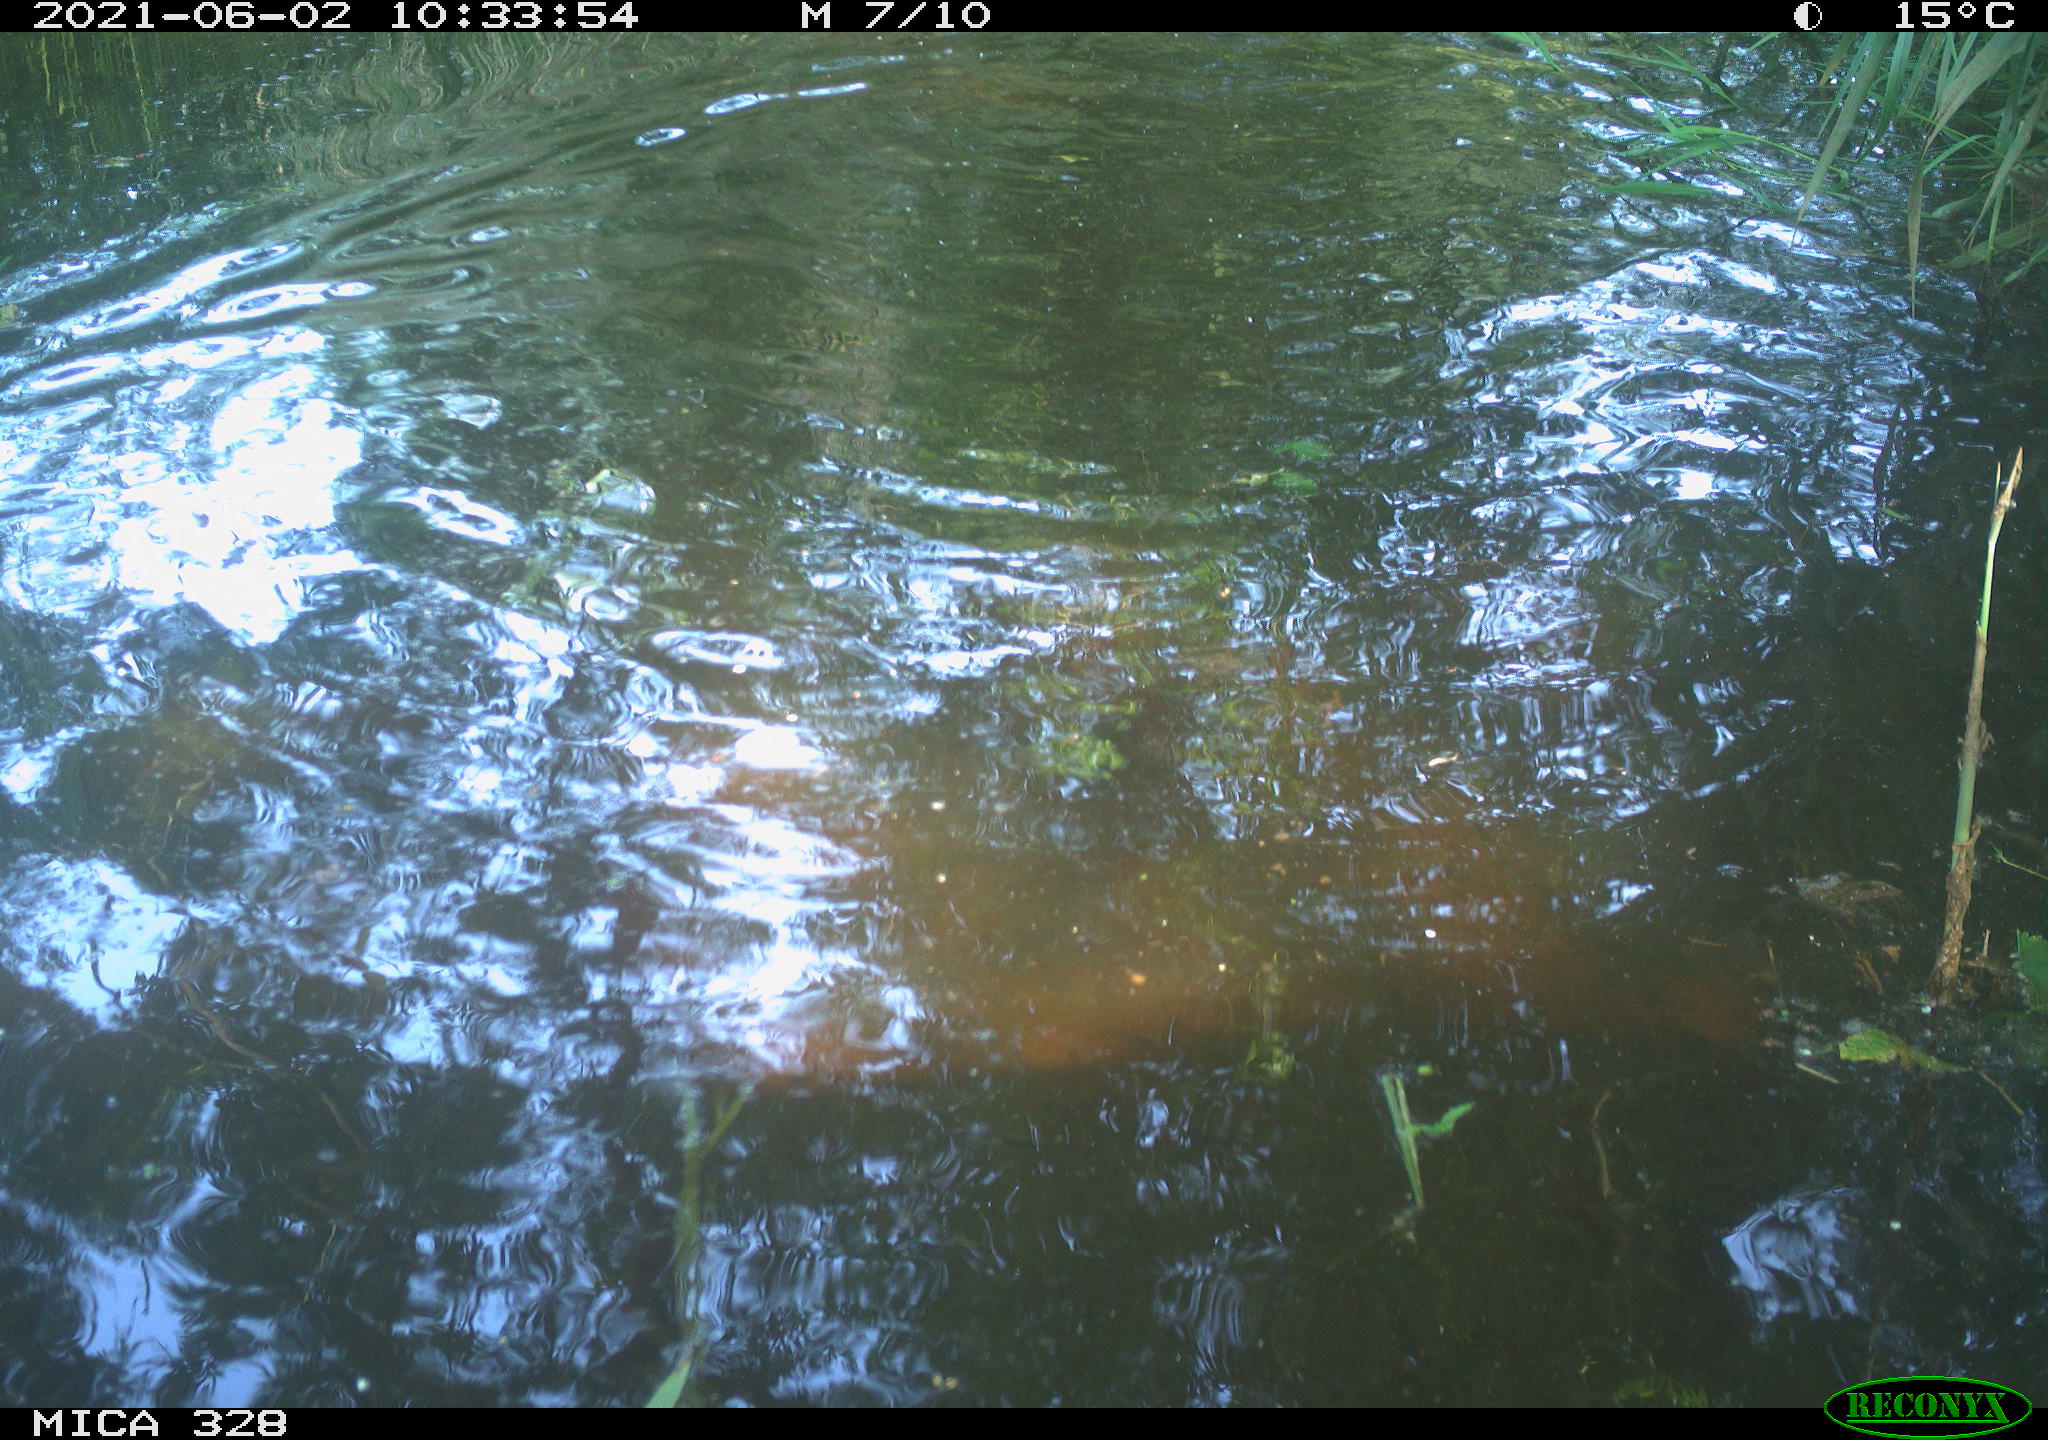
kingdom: Animalia
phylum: Chordata
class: Mammalia
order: Rodentia
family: Cricetidae
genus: Ondatra
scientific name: Ondatra zibethicus
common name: Muskrat
